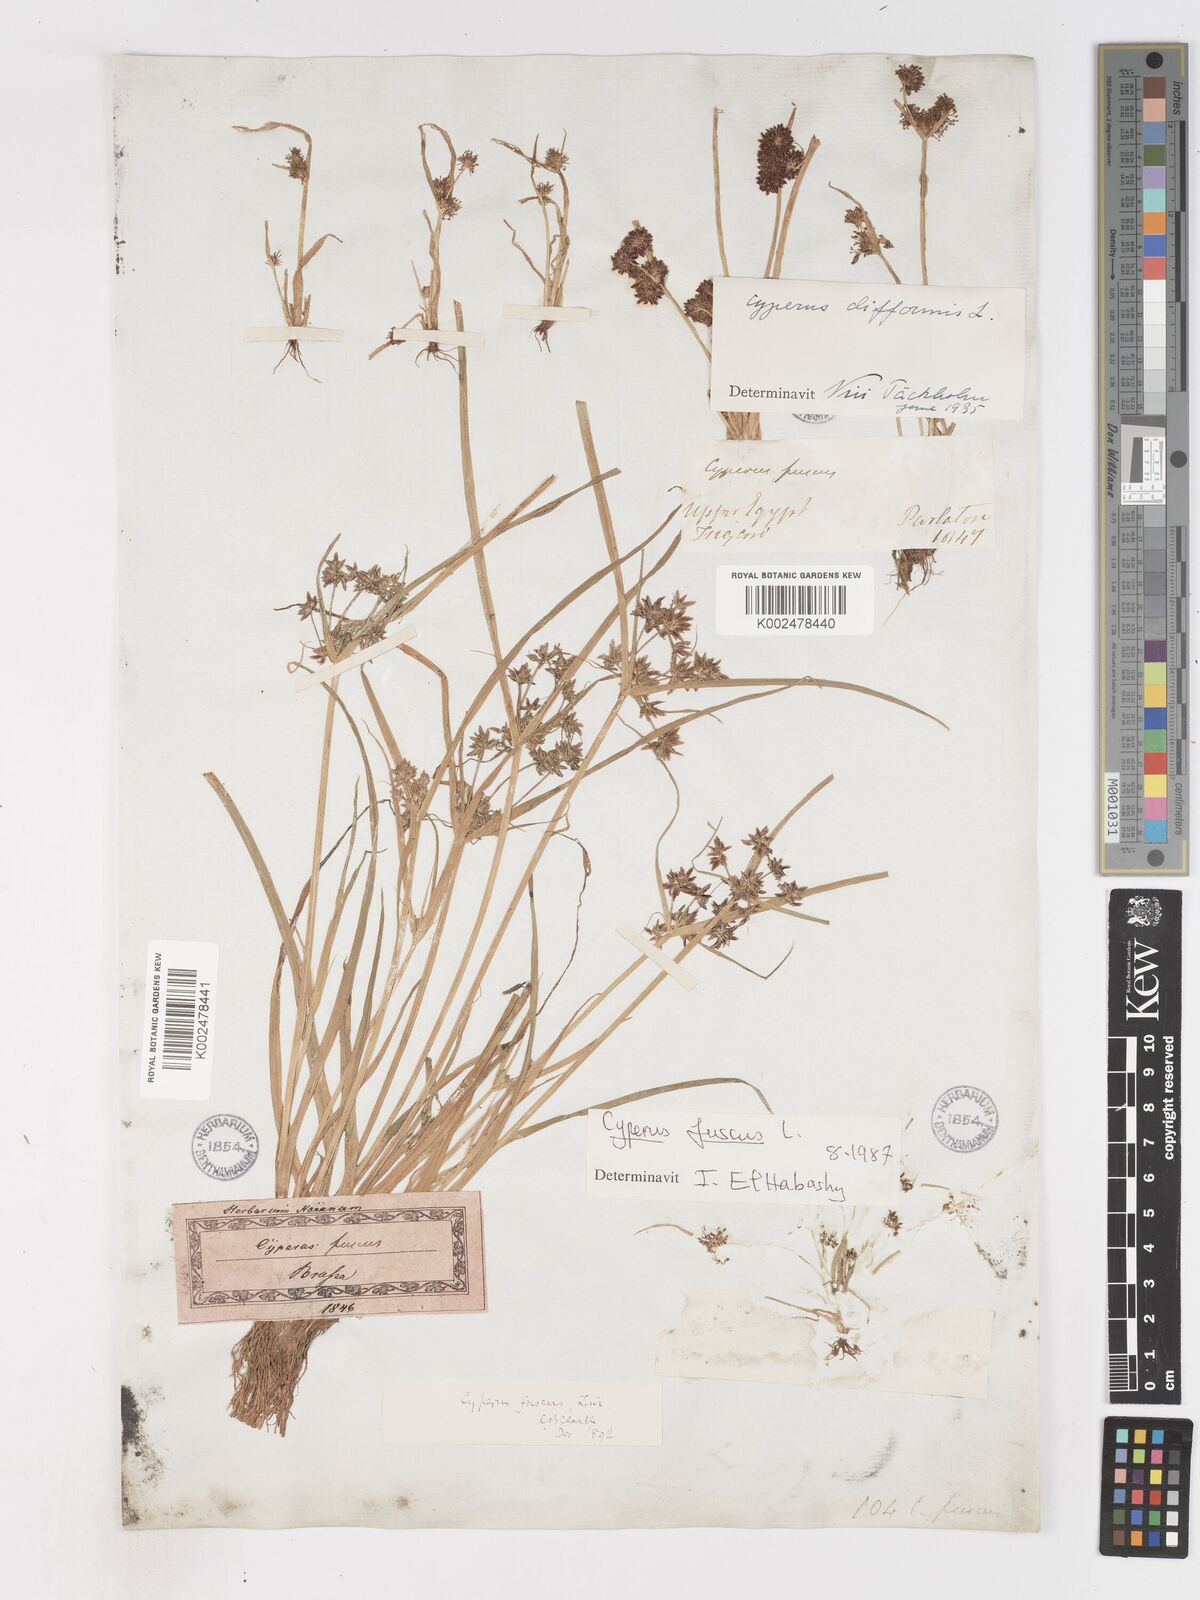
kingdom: Plantae
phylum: Tracheophyta
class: Liliopsida
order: Poales
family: Cyperaceae
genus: Cyperus
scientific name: Cyperus fuscus
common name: Brown galingale
